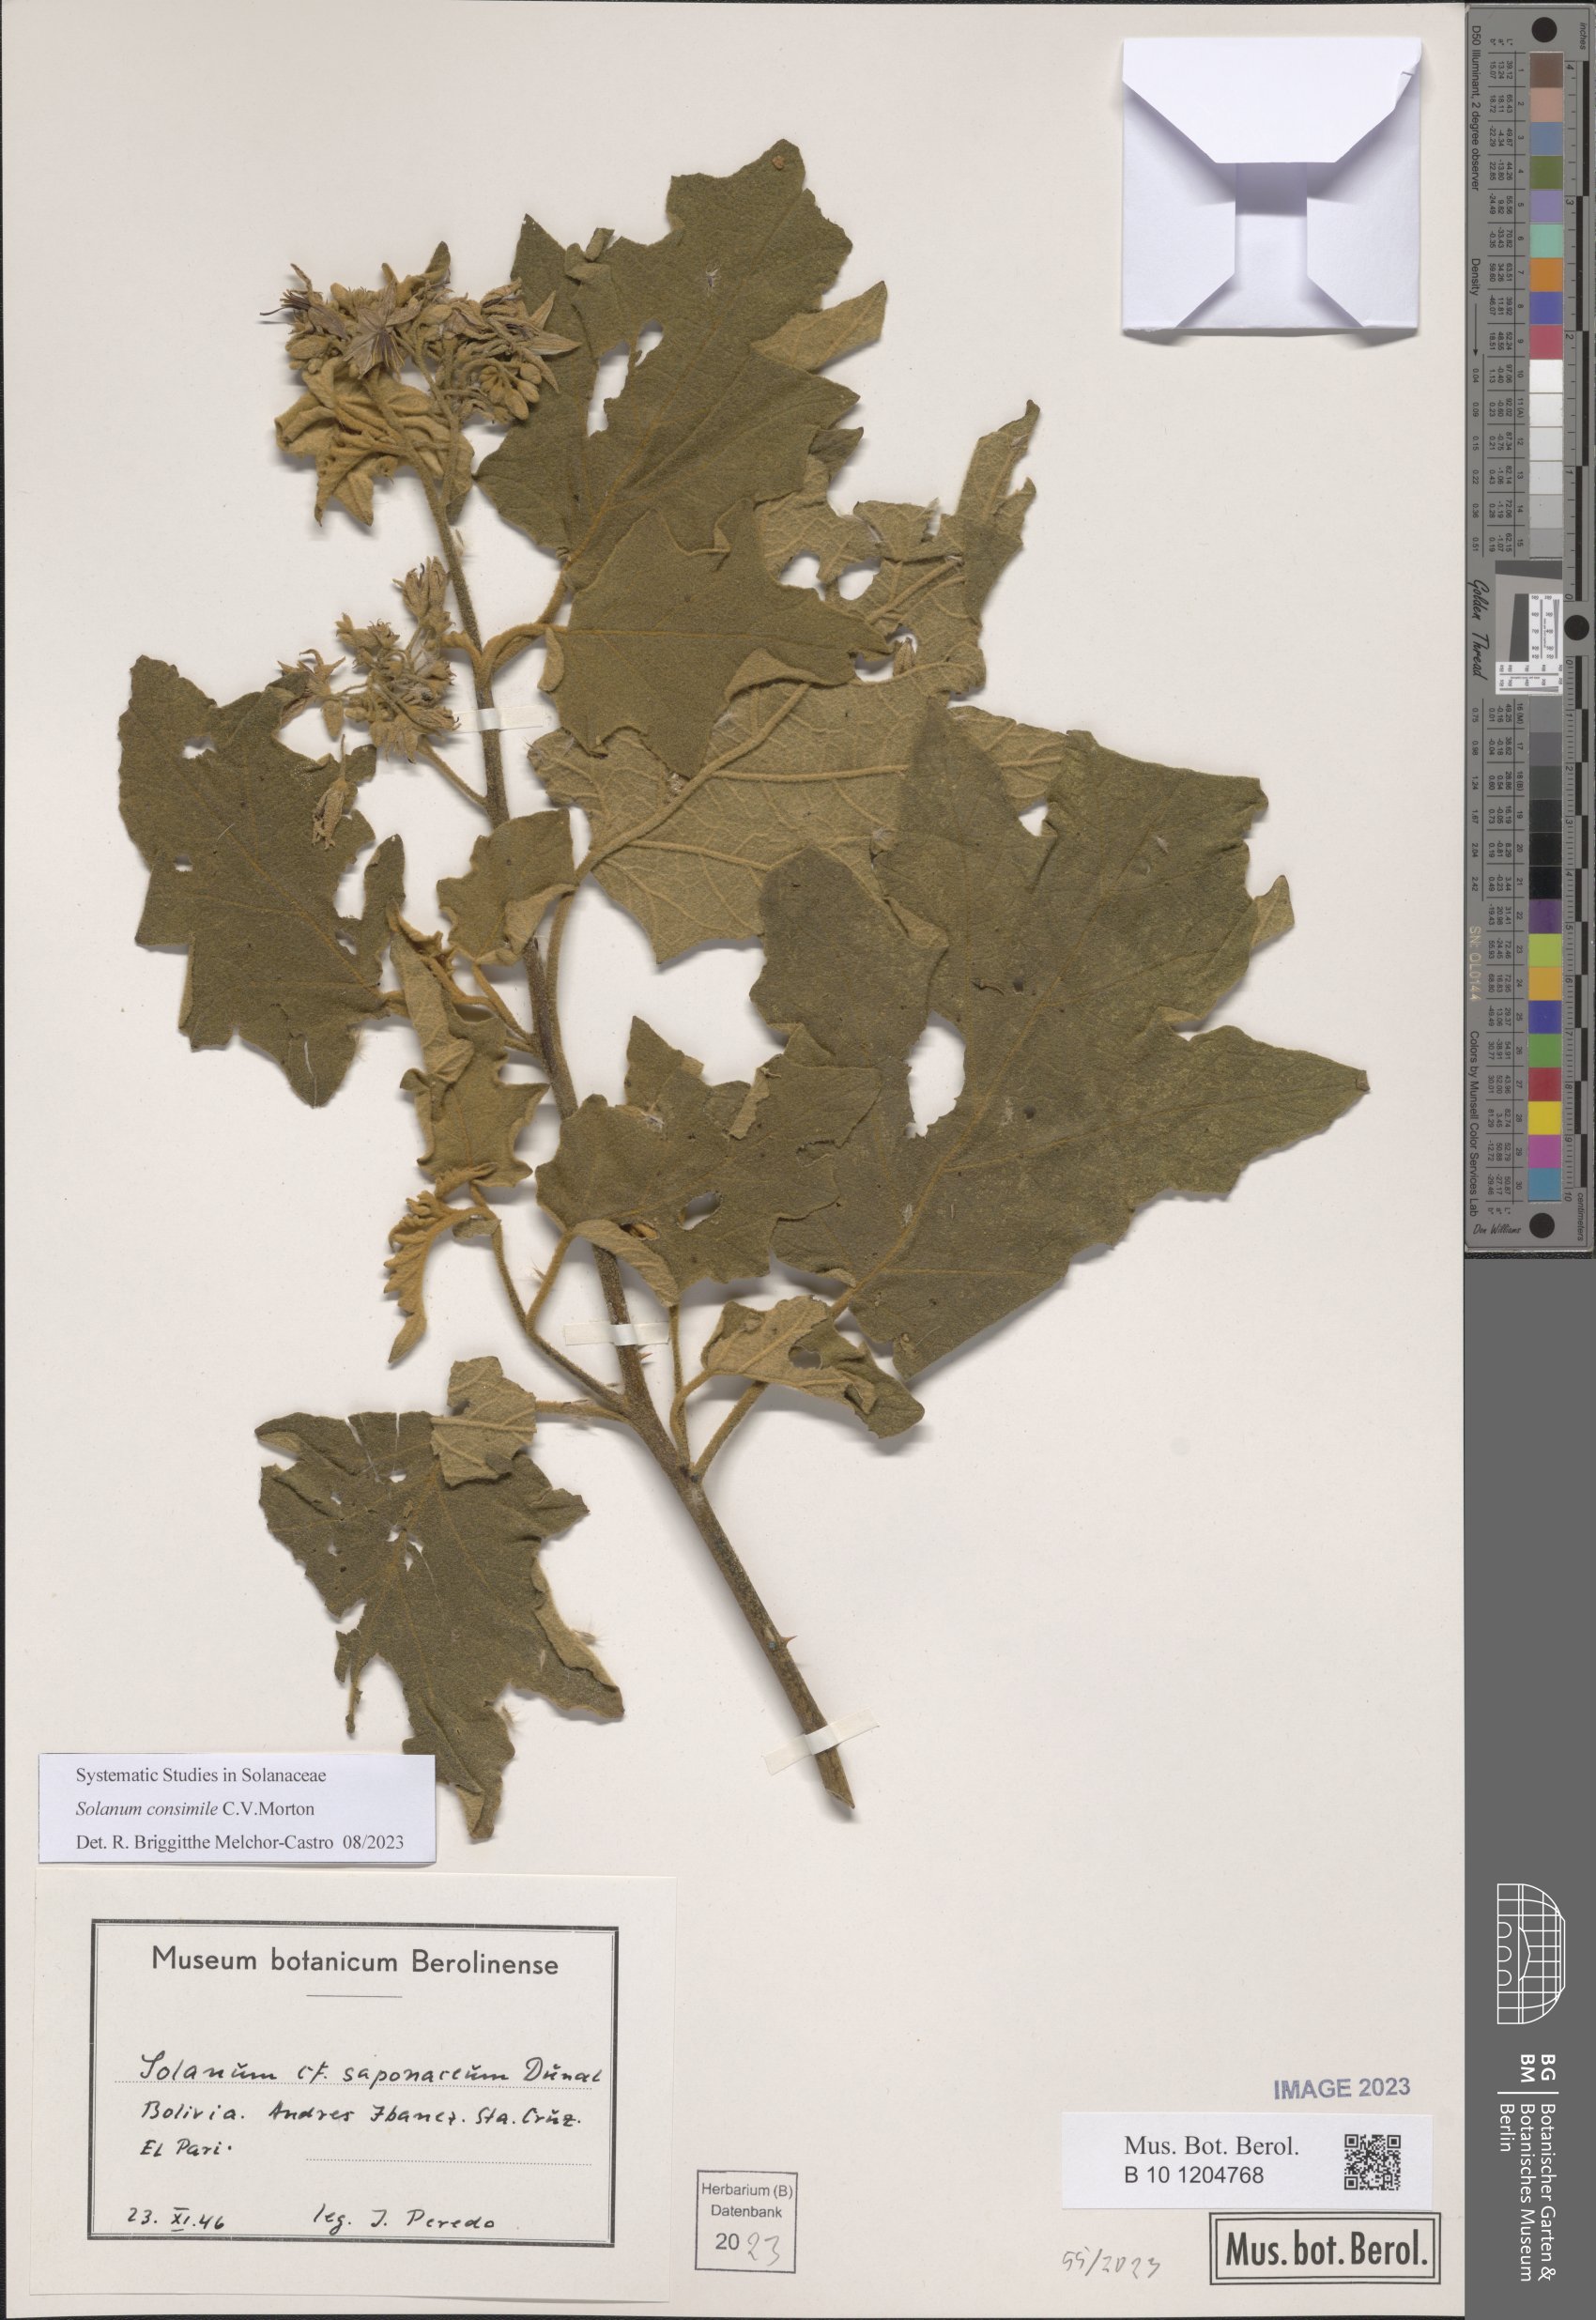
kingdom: Plantae
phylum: Tracheophyta
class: Magnoliopsida
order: Solanales
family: Solanaceae
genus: Solanum
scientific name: Solanum consimile
